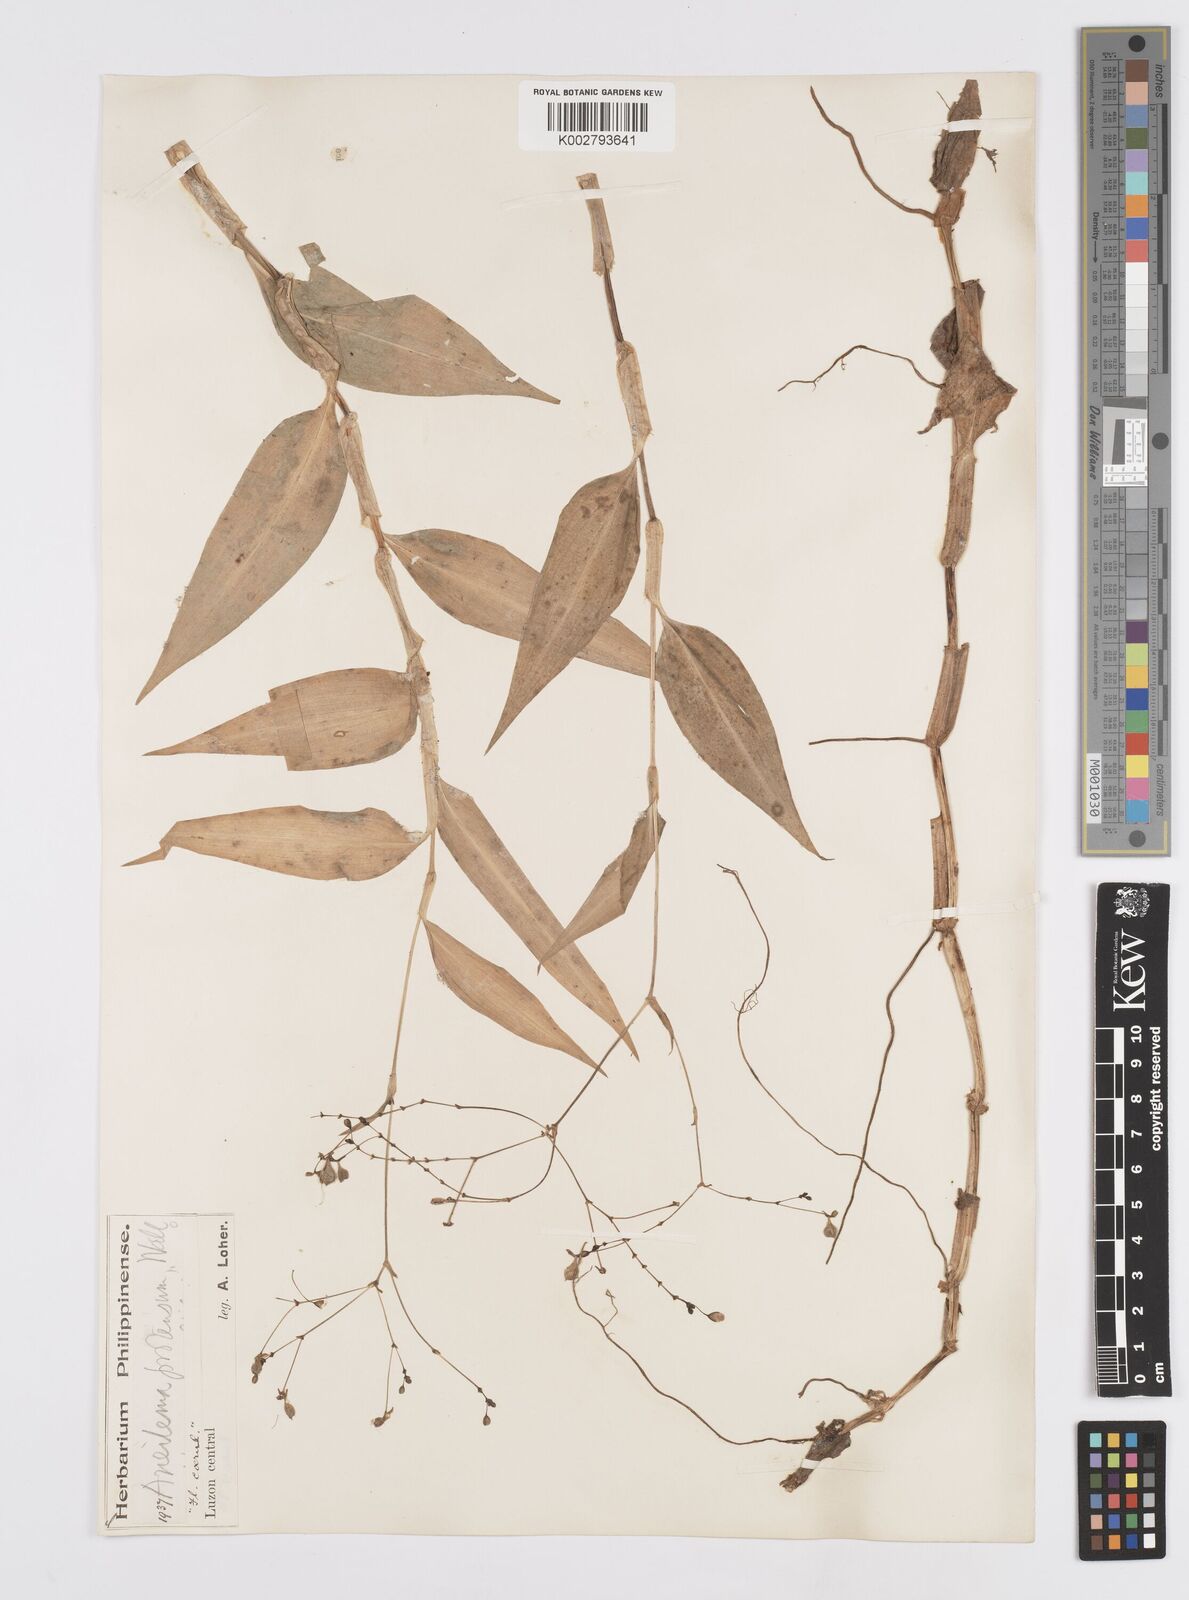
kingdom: Plantae
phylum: Tracheophyta
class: Liliopsida
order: Commelinales
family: Commelinaceae
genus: Murdannia
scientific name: Murdannia
